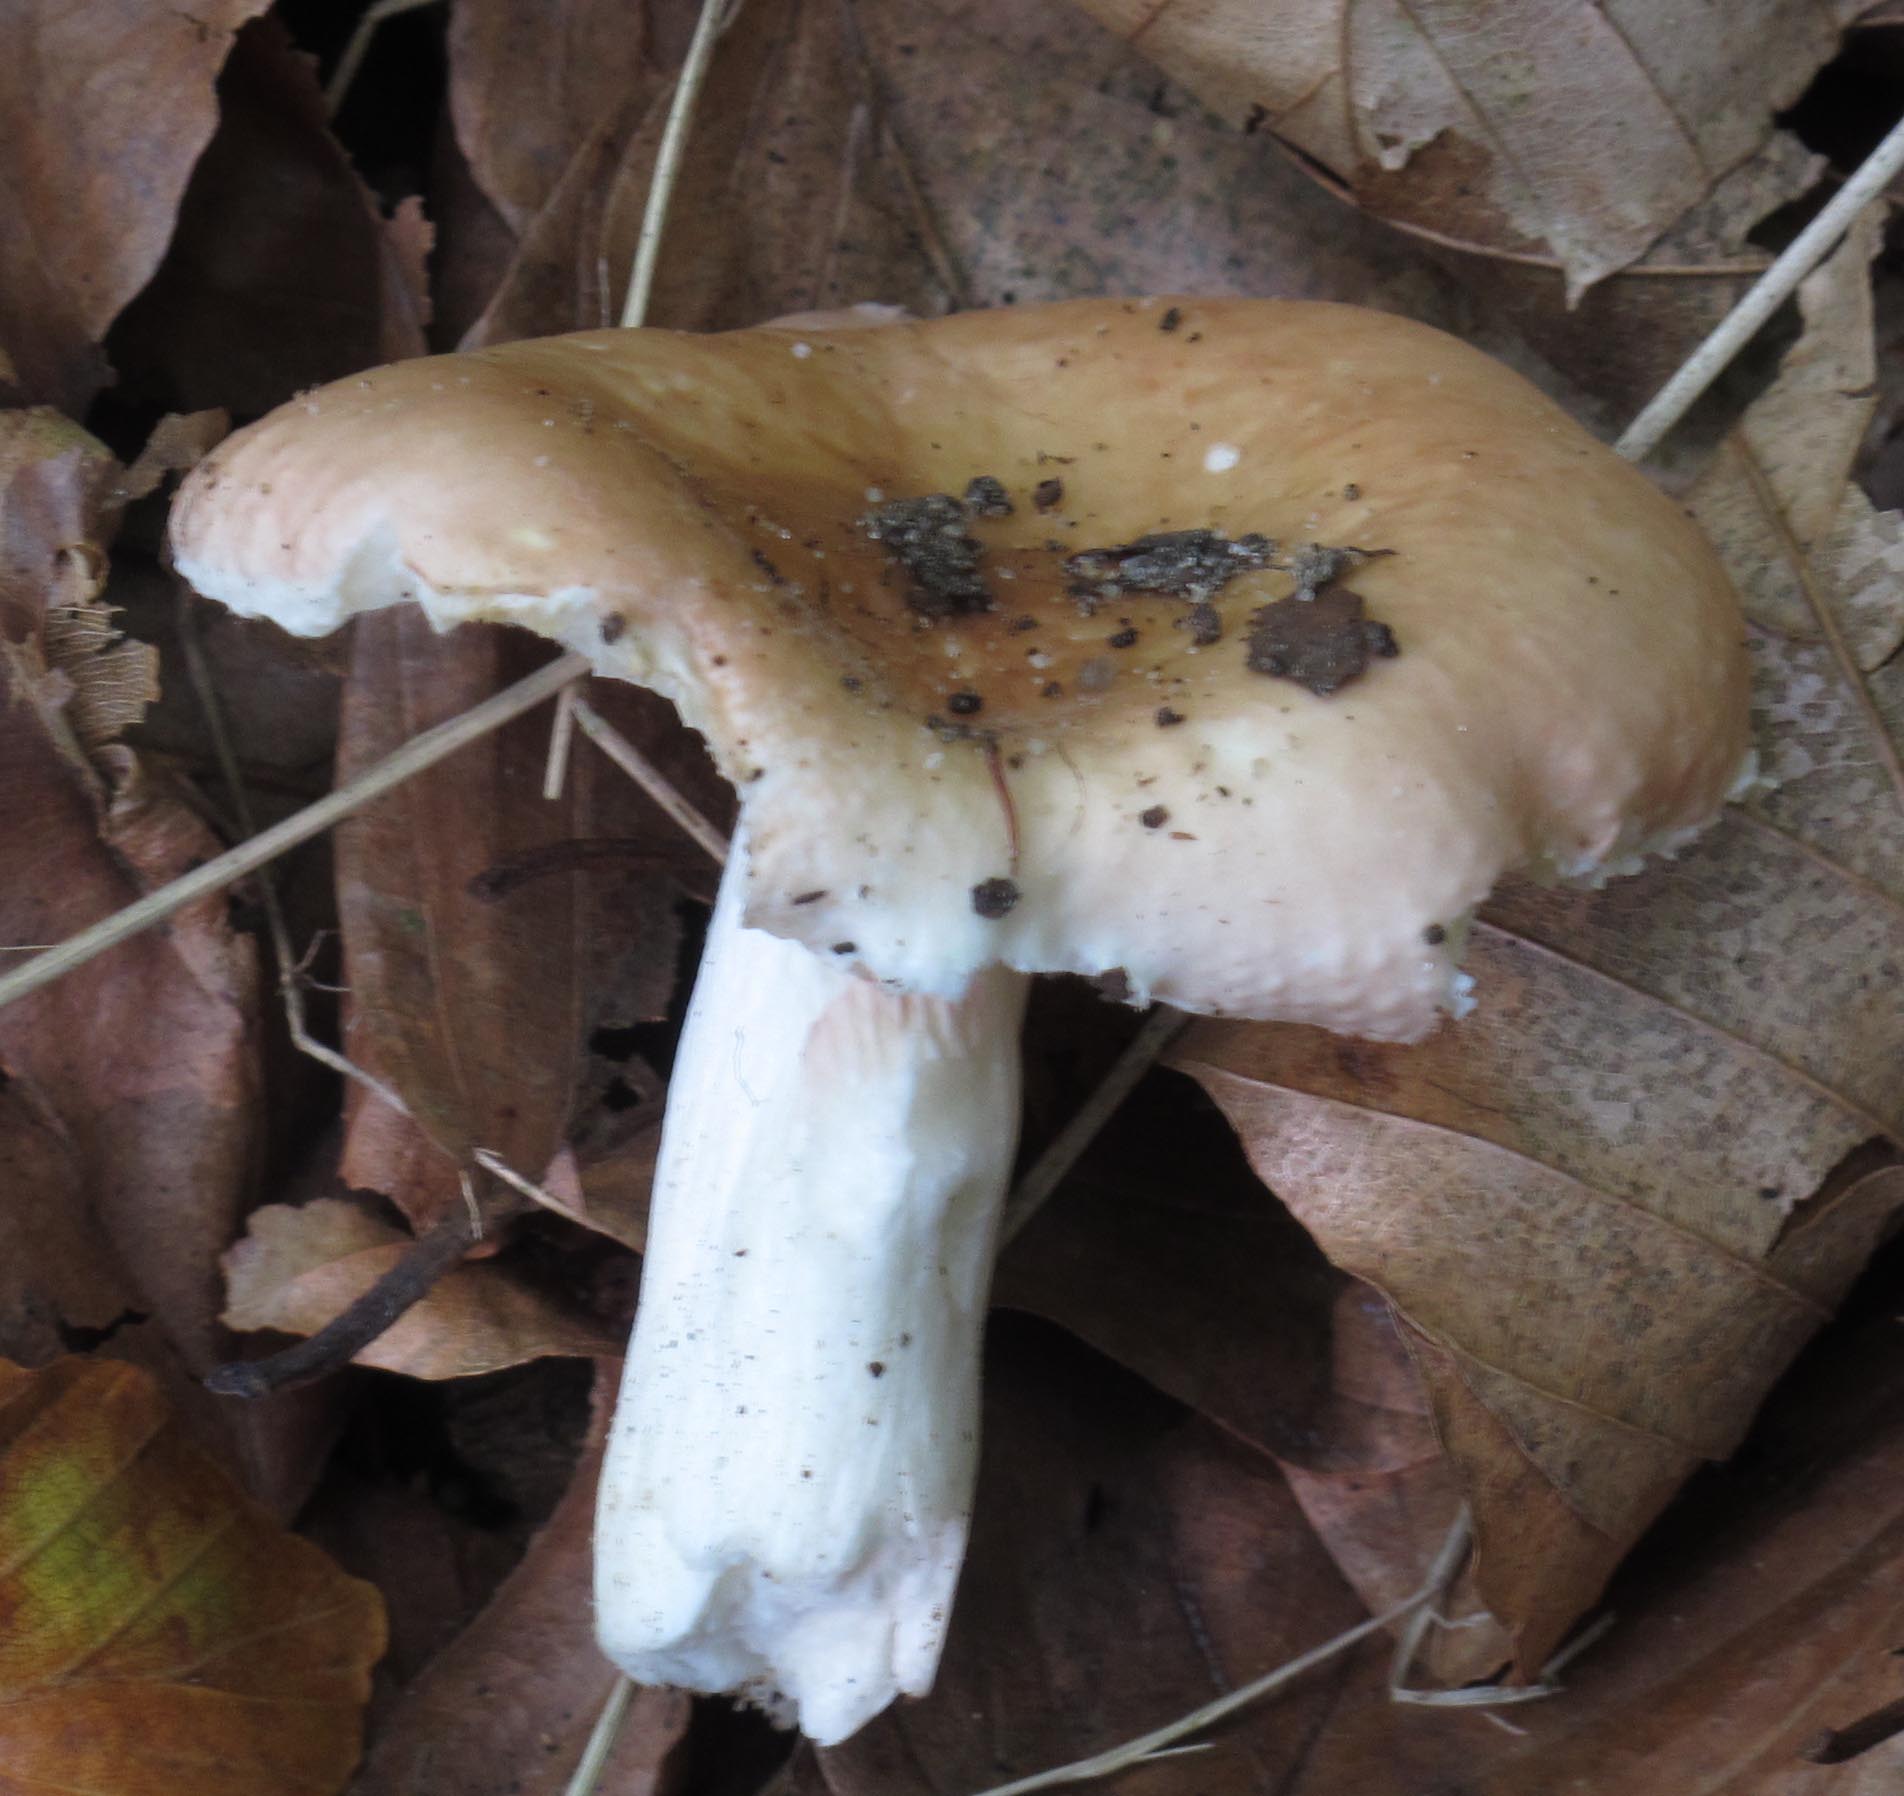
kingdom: Fungi
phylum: Basidiomycota
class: Agaricomycetes
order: Russulales
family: Russulaceae
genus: Russula
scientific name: Russula veternosa
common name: blødkødet skørhat
